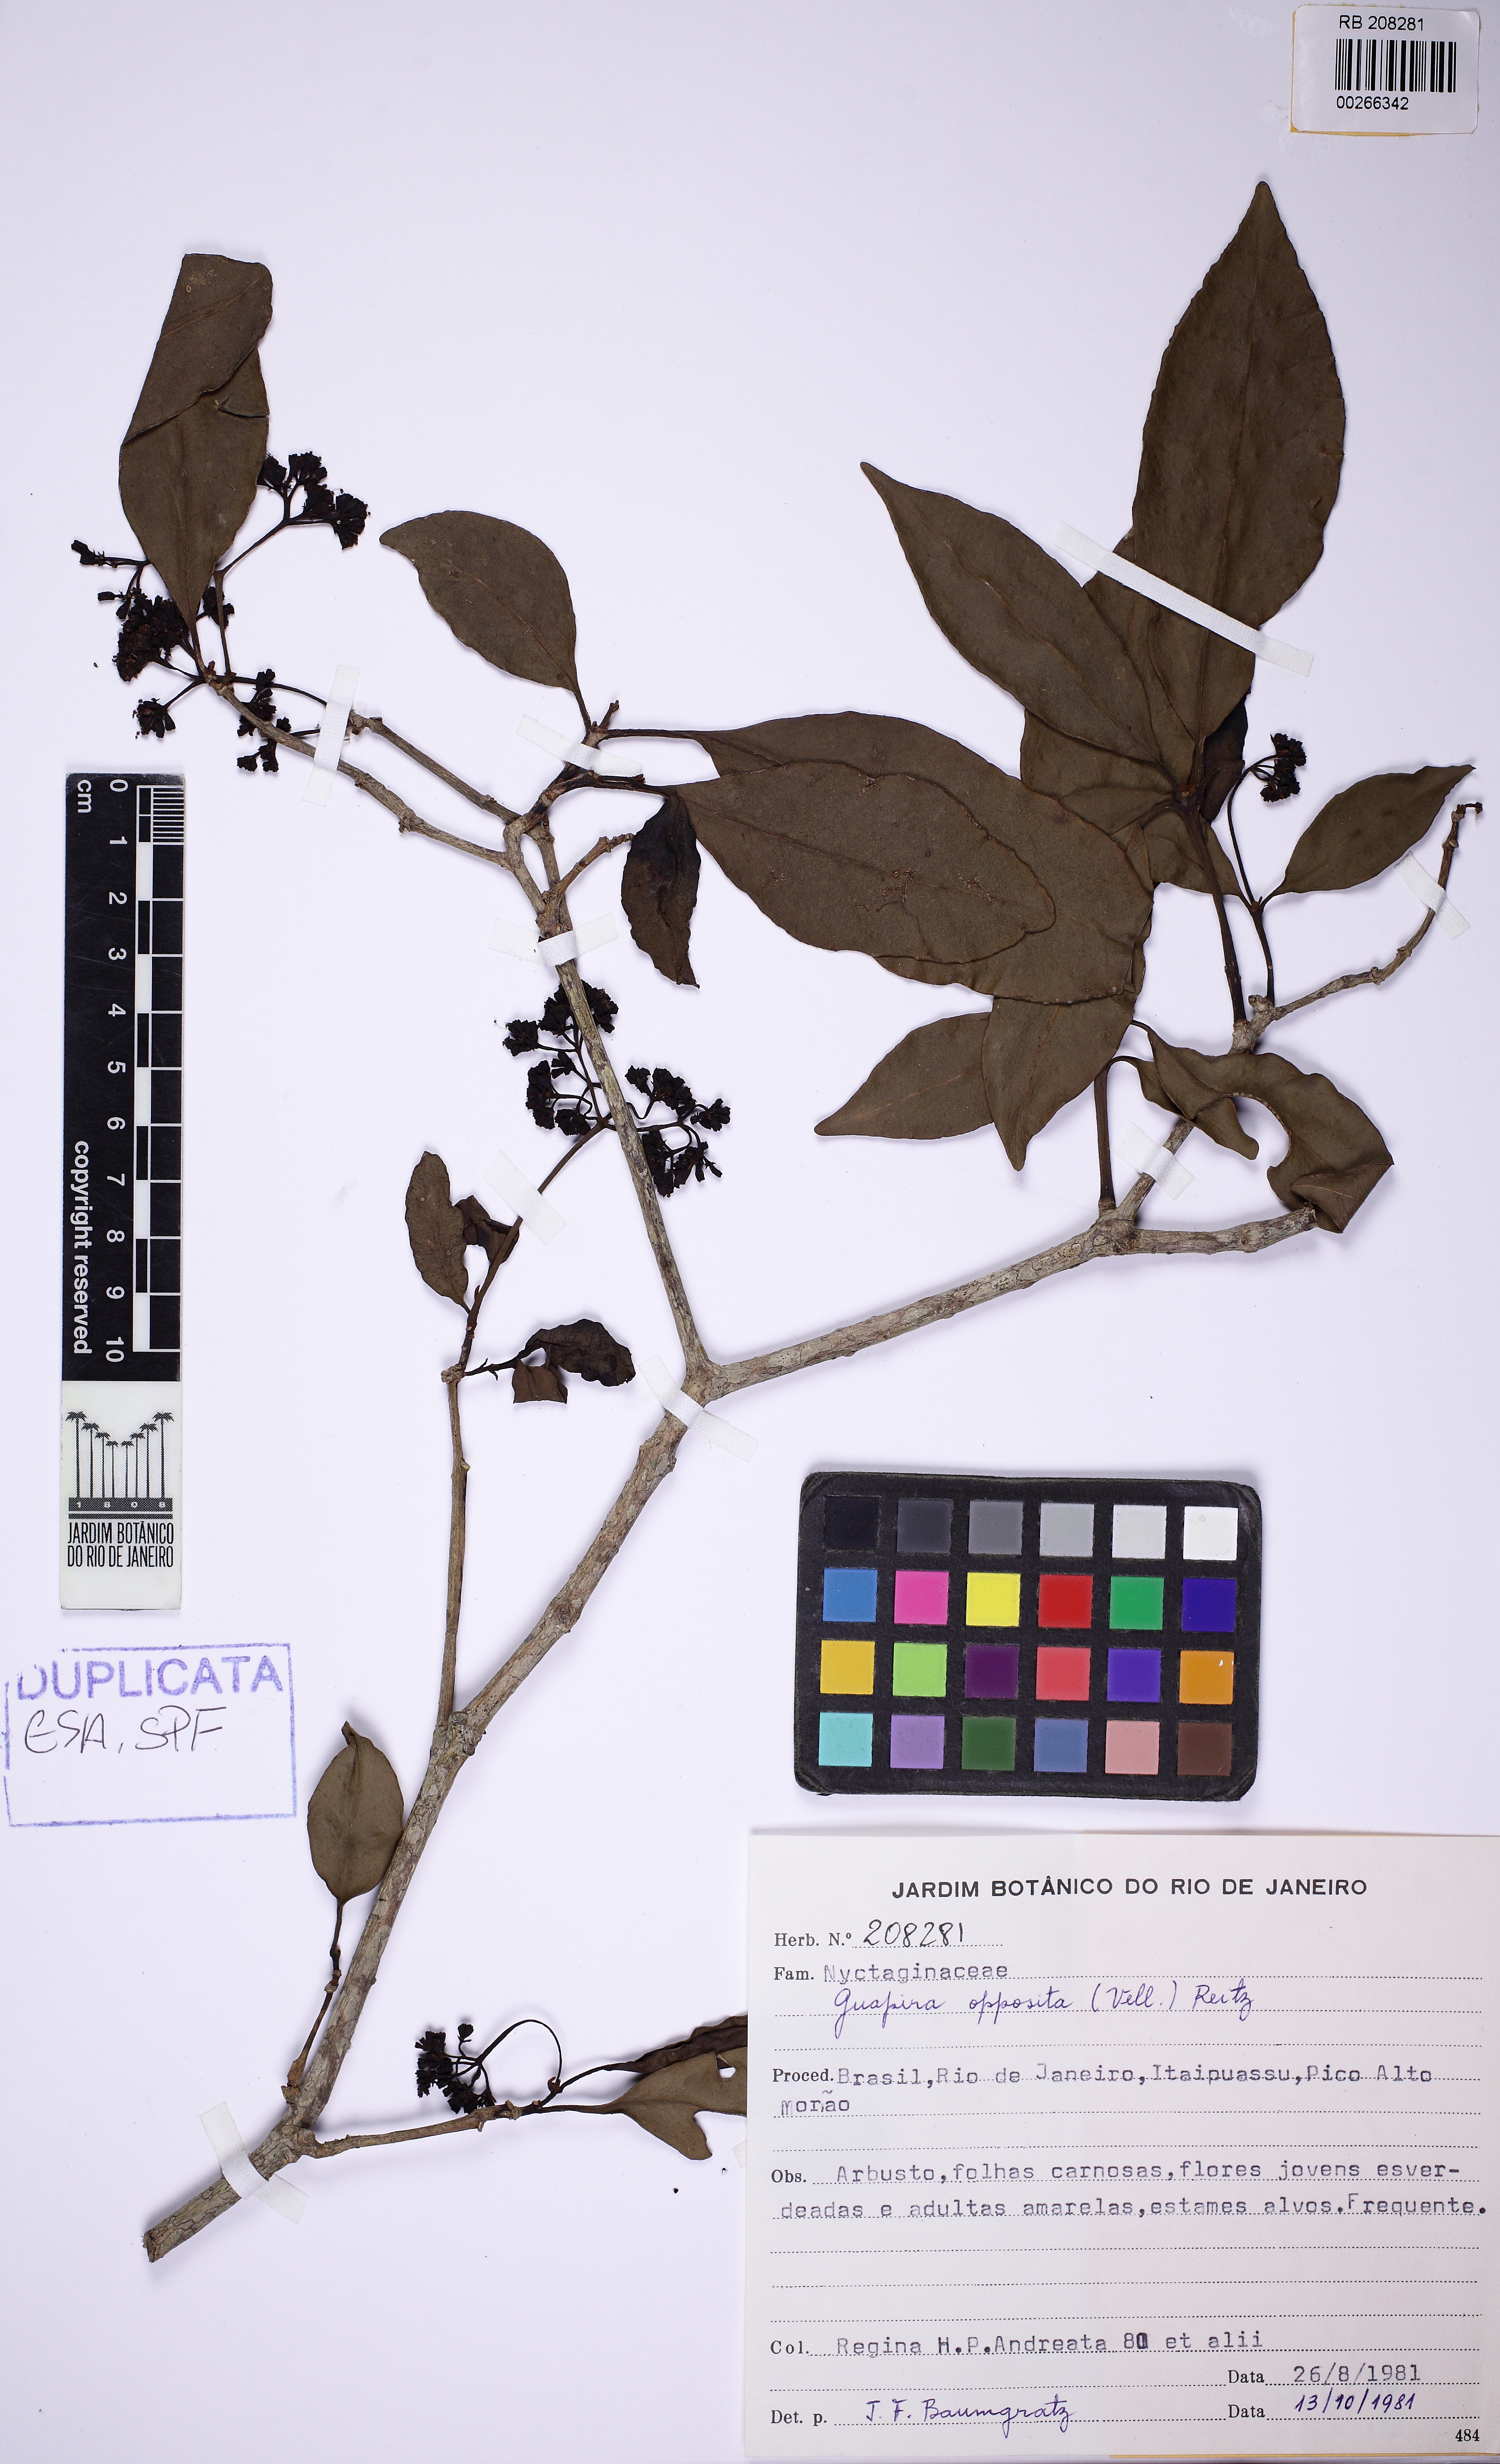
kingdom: Plantae
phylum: Tracheophyta
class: Magnoliopsida
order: Caryophyllales
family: Nyctaginaceae
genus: Guapira
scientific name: Guapira opposita
